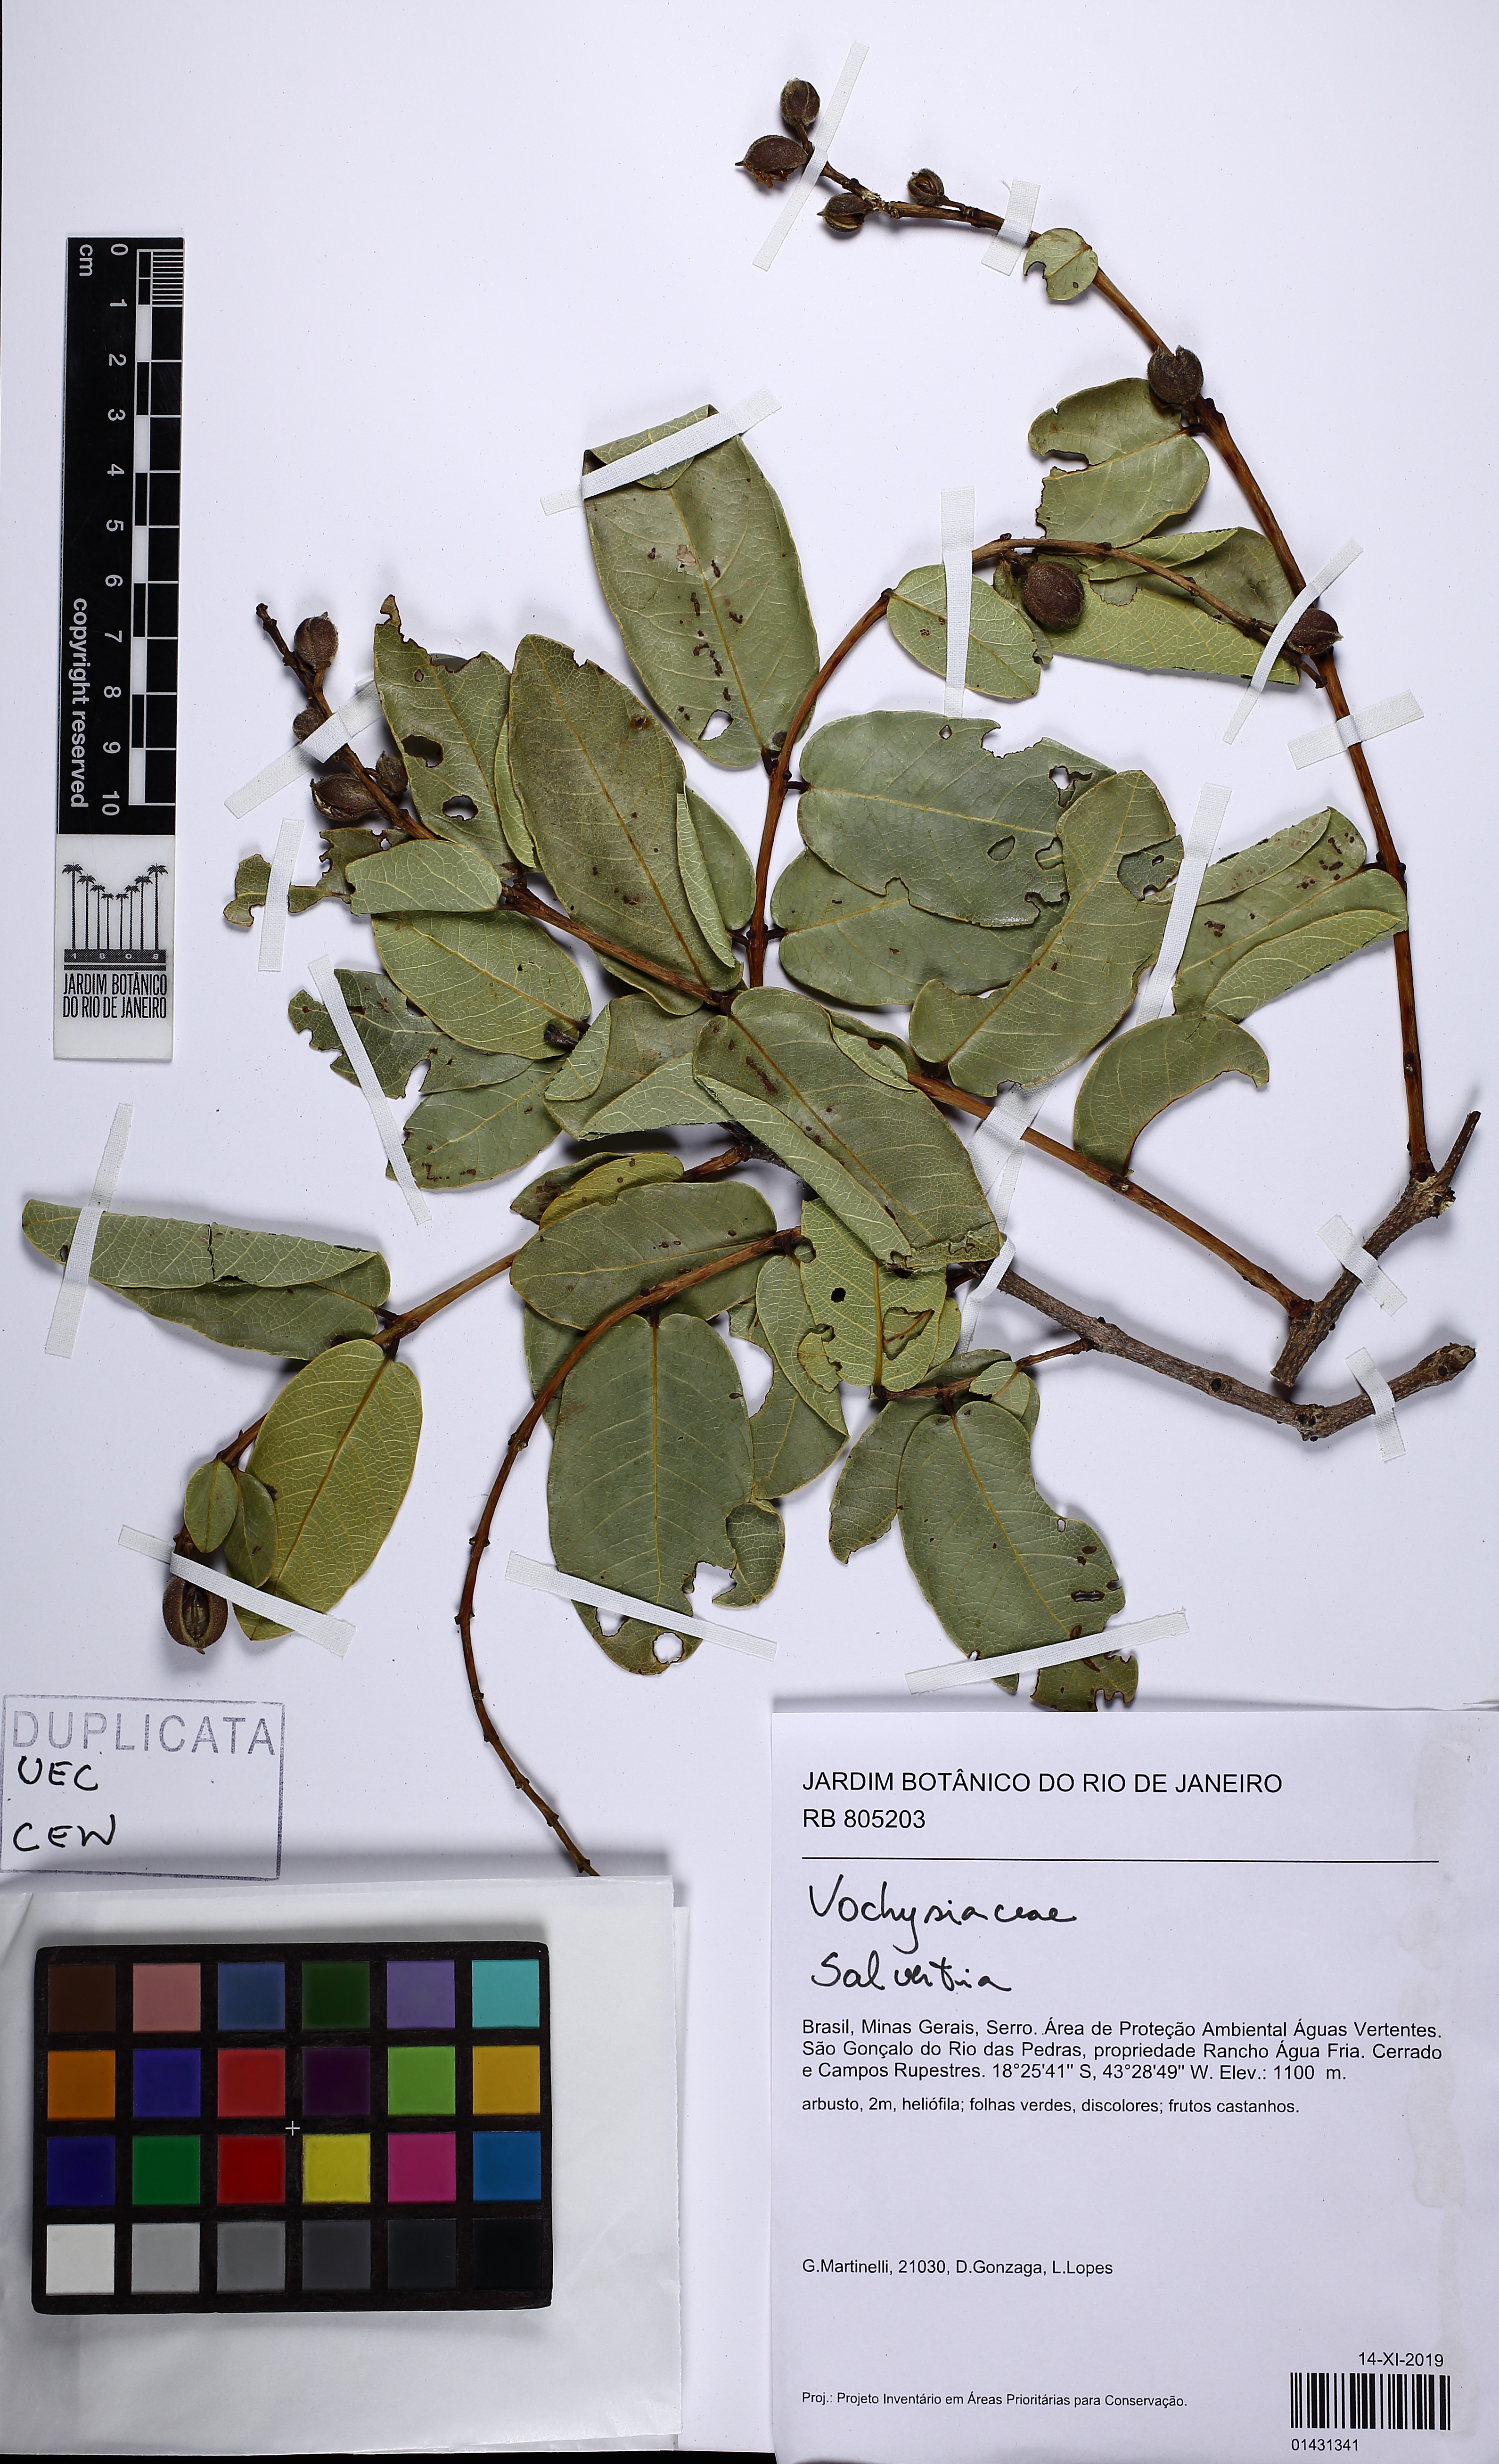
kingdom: Plantae
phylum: Tracheophyta
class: Magnoliopsida
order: Myrtales
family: Vochysiaceae
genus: Salvertia
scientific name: Salvertia
